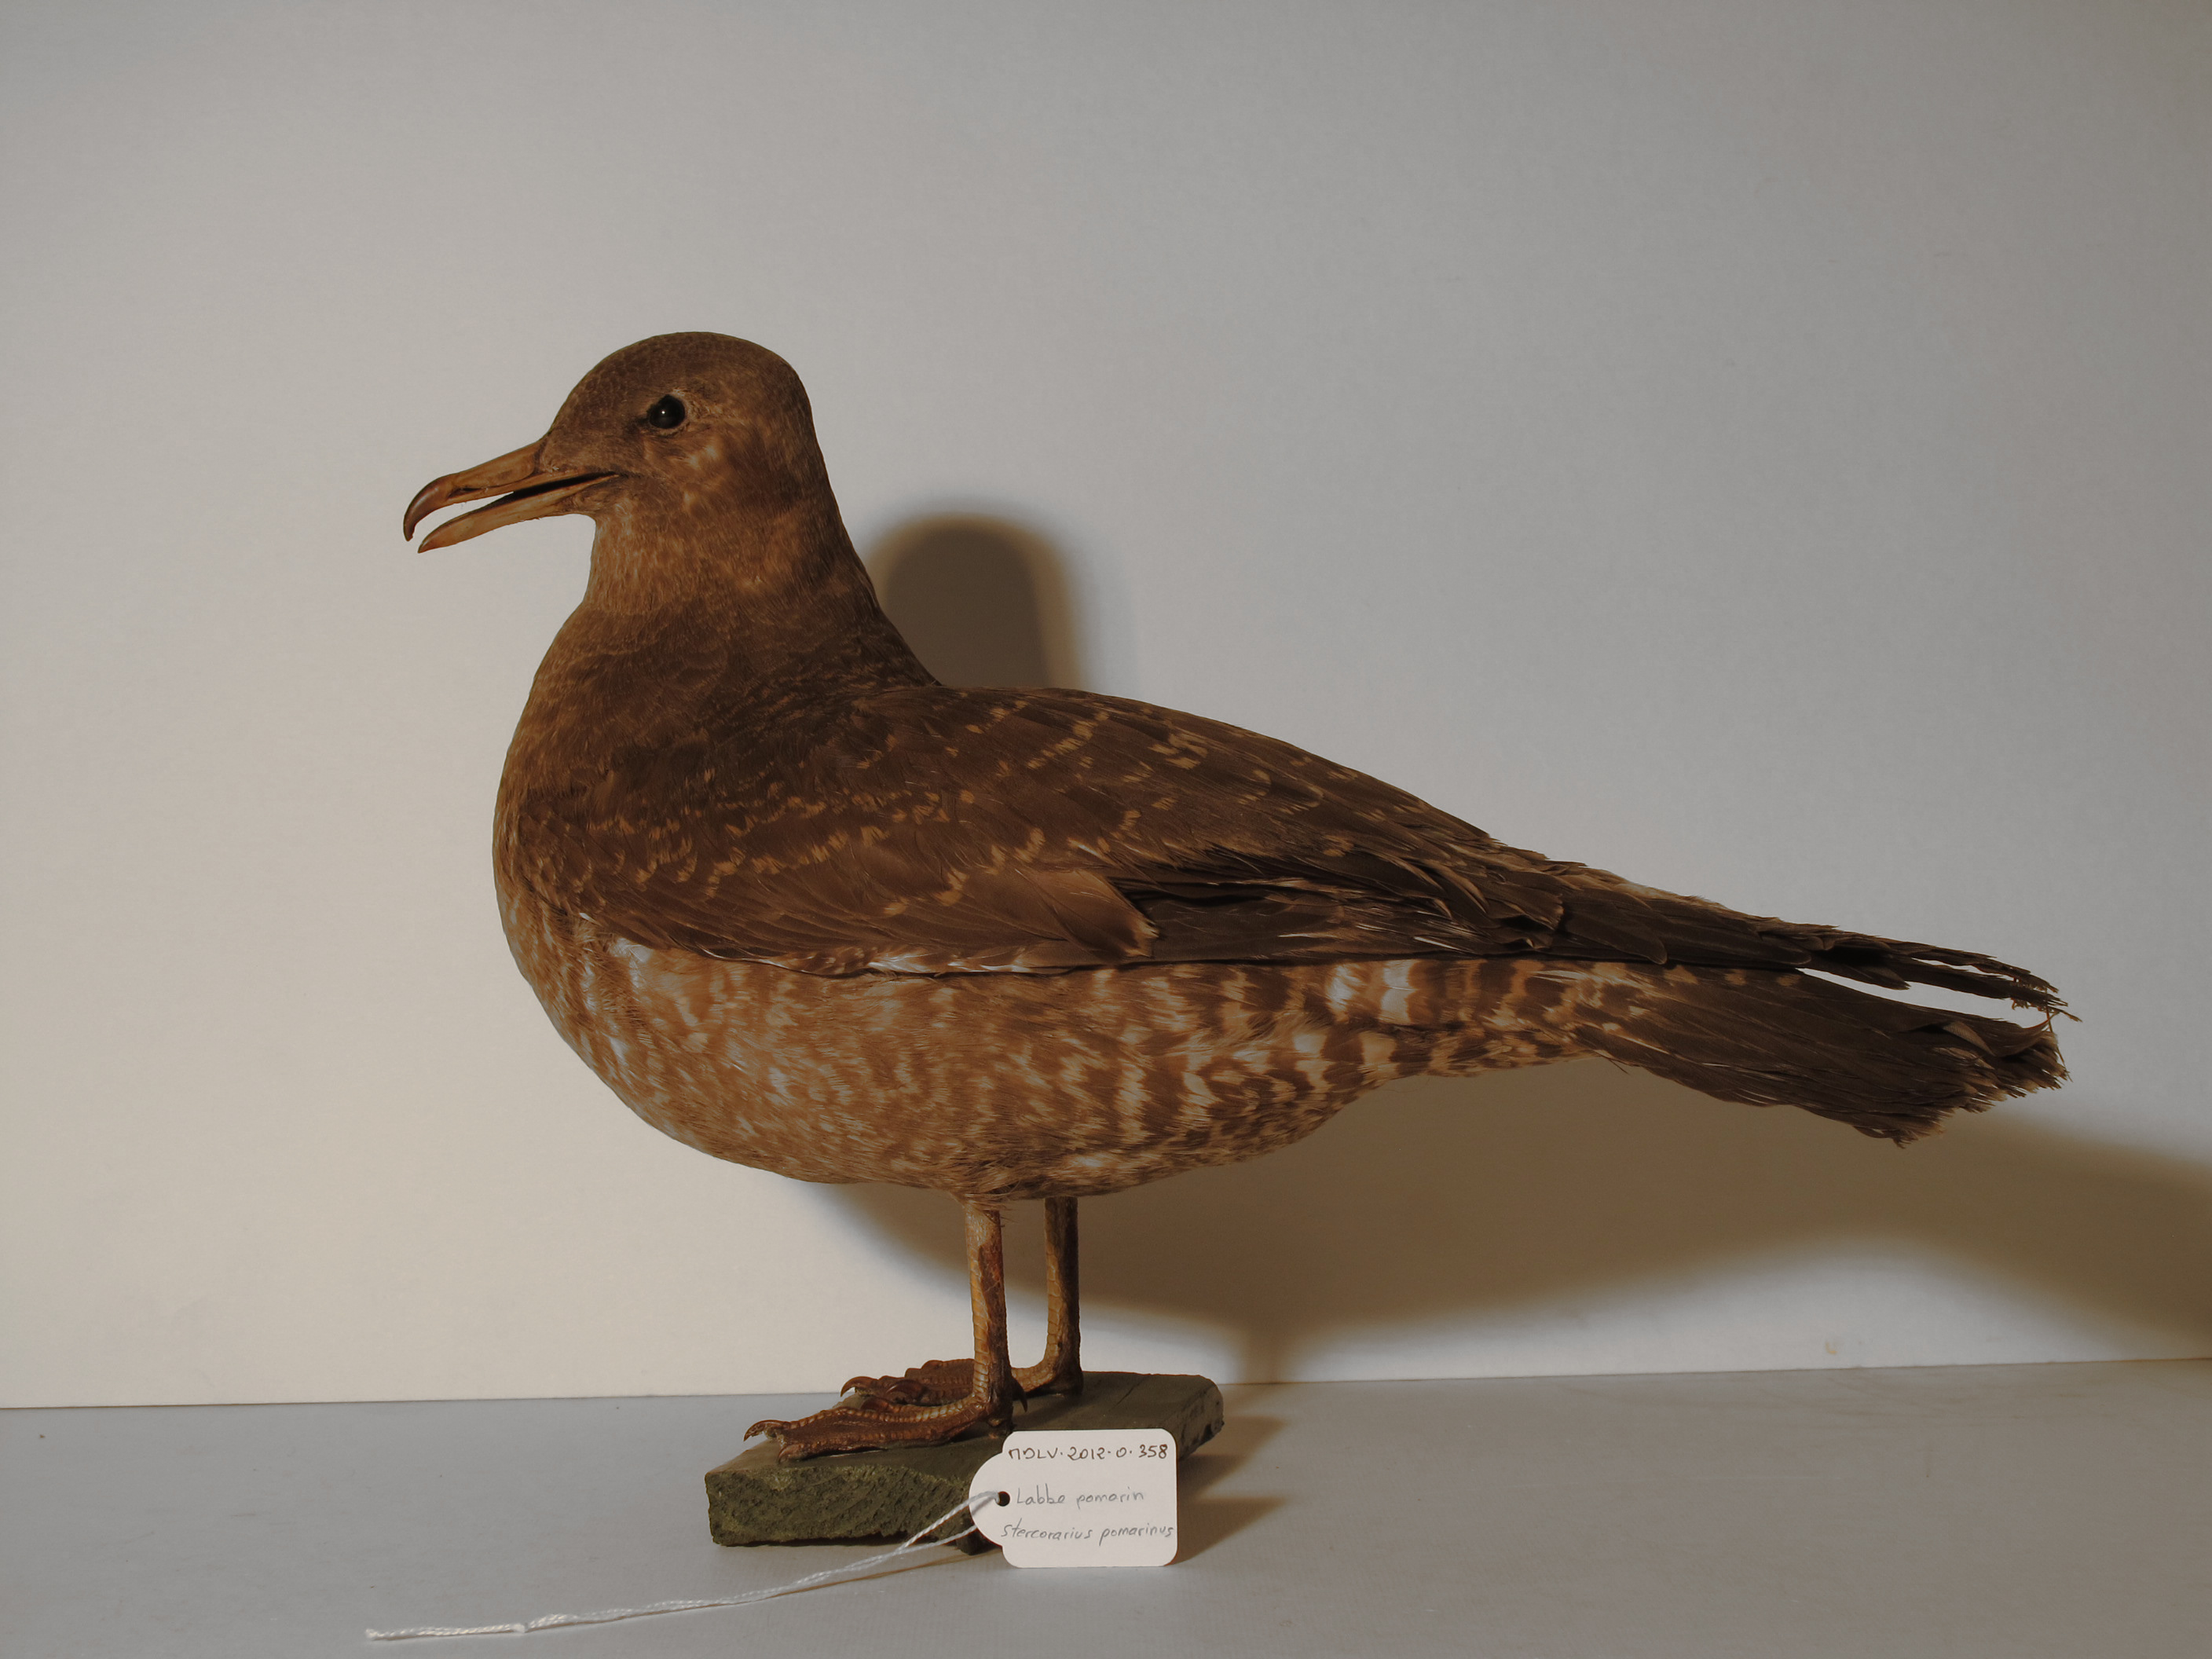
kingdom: Animalia
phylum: Chordata
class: Aves
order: Charadriiformes
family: Stercorariidae
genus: Stercorarius
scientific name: Stercorarius pomarinus
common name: Pomarine Skua
